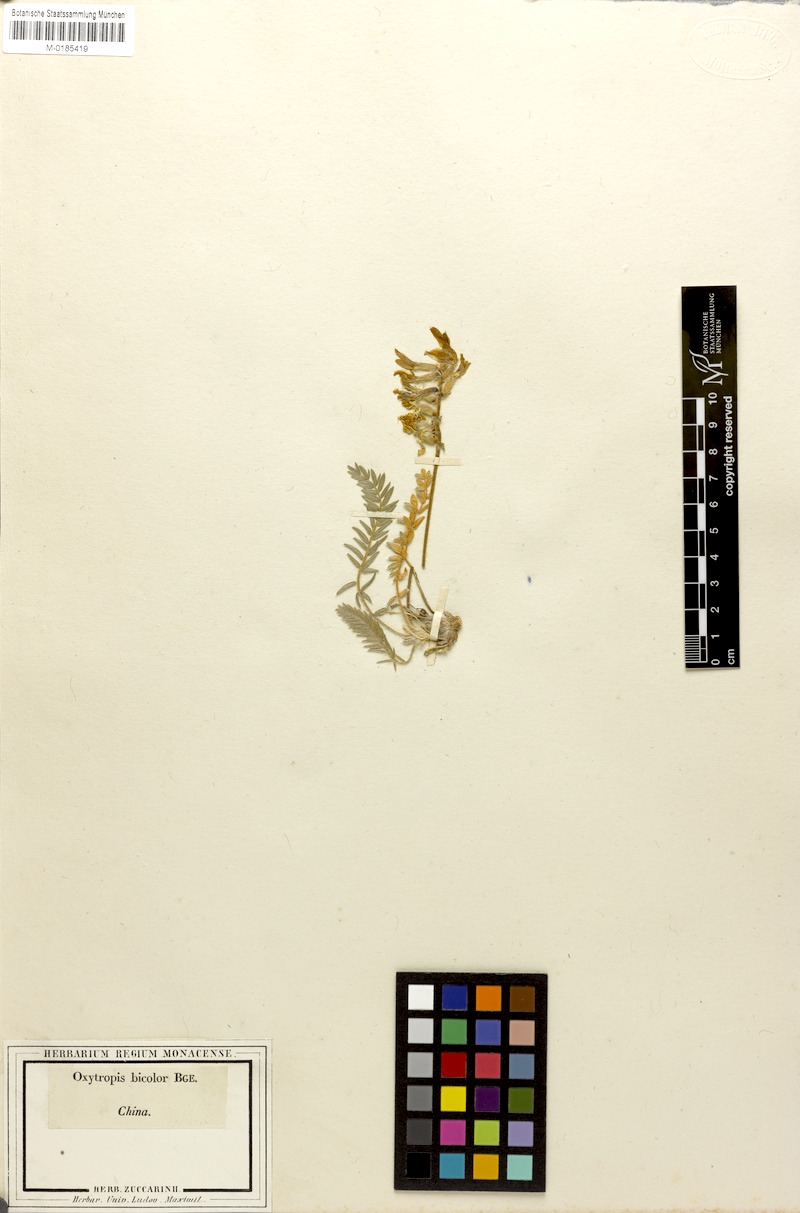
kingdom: Plantae
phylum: Tracheophyta
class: Magnoliopsida
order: Fabales
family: Fabaceae
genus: Oxytropis
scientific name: Oxytropis bicolor
